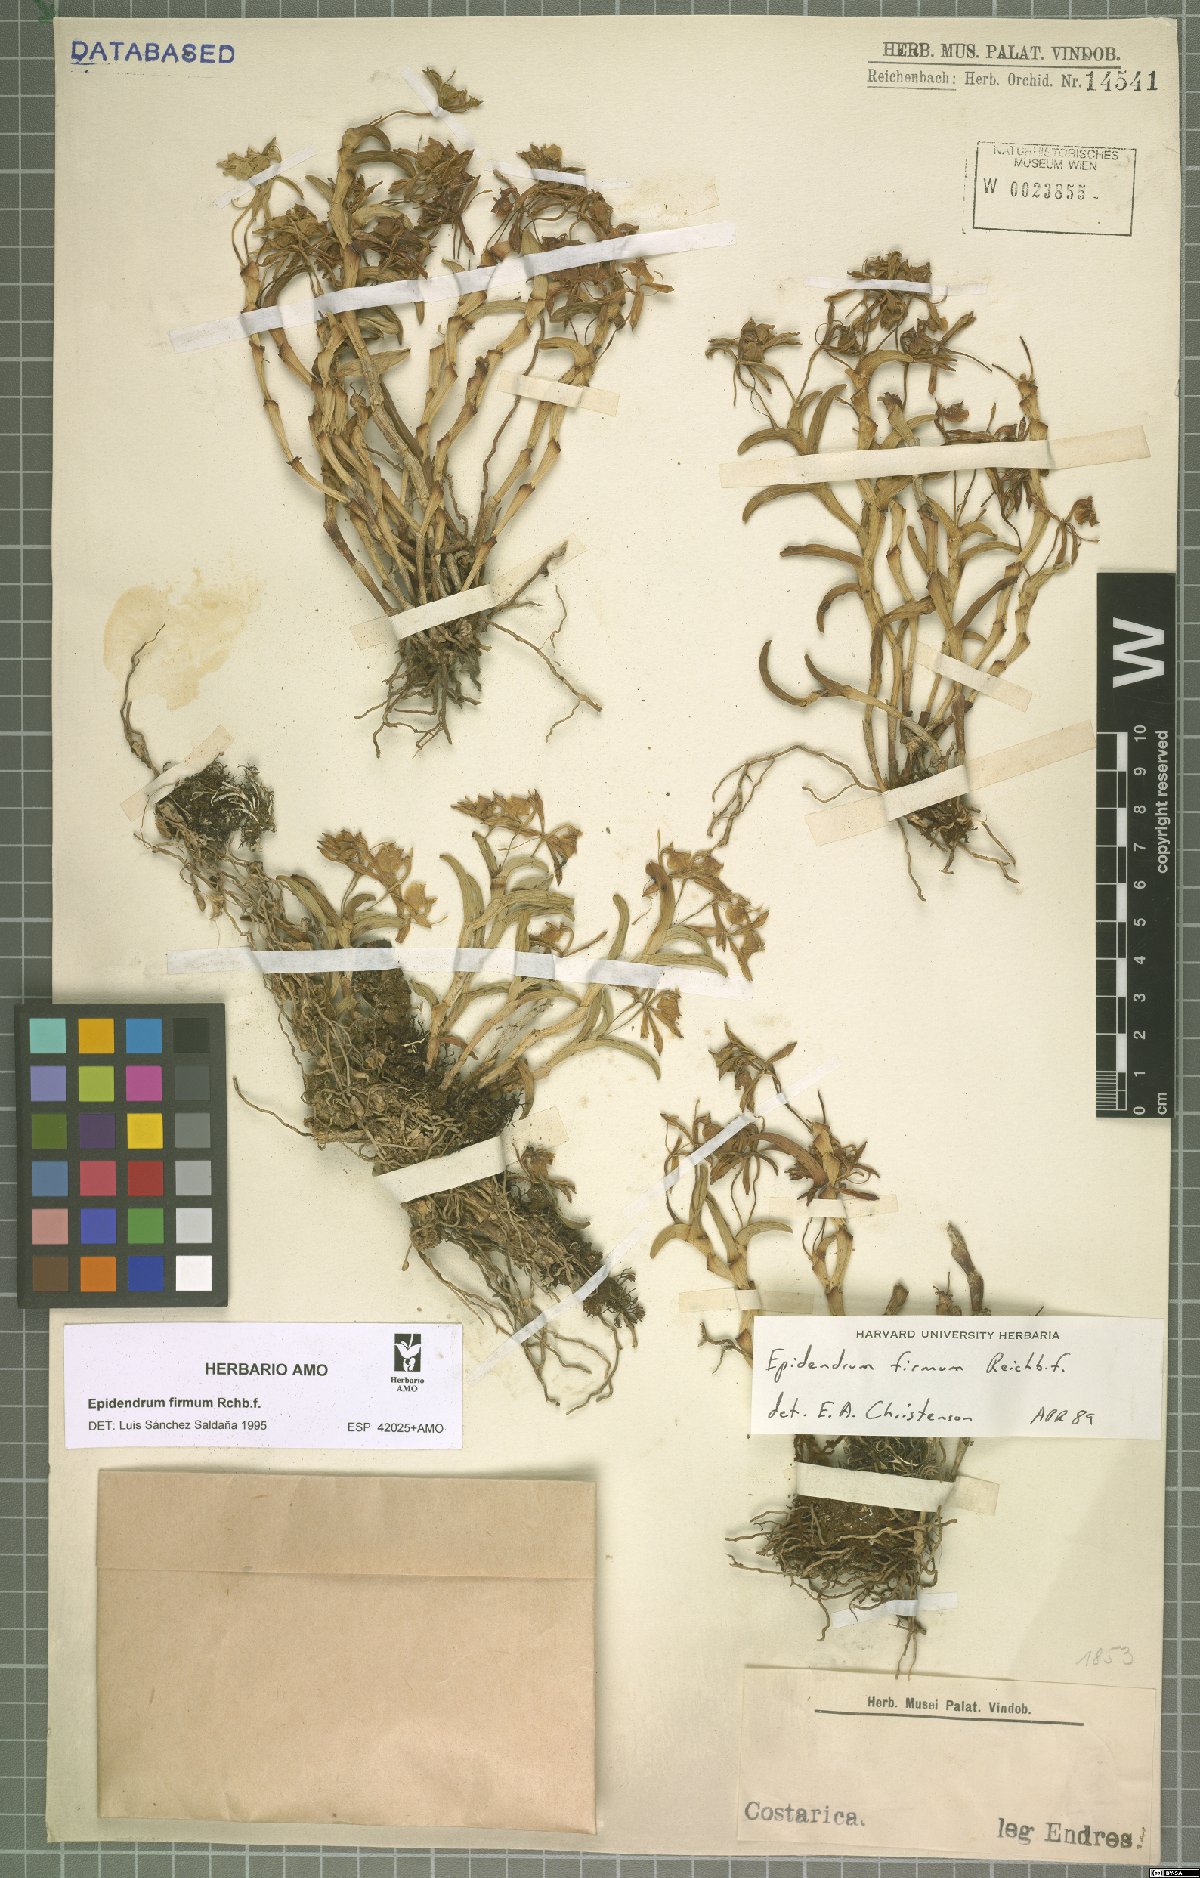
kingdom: Plantae
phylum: Tracheophyta
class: Liliopsida
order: Asparagales
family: Orchidaceae
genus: Epidendrum
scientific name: Epidendrum firmum
